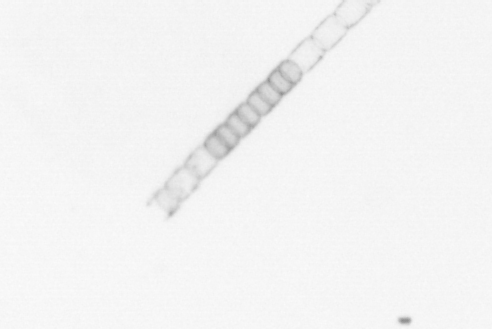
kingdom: Chromista
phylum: Ochrophyta
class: Bacillariophyceae
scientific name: Bacillariophyceae
